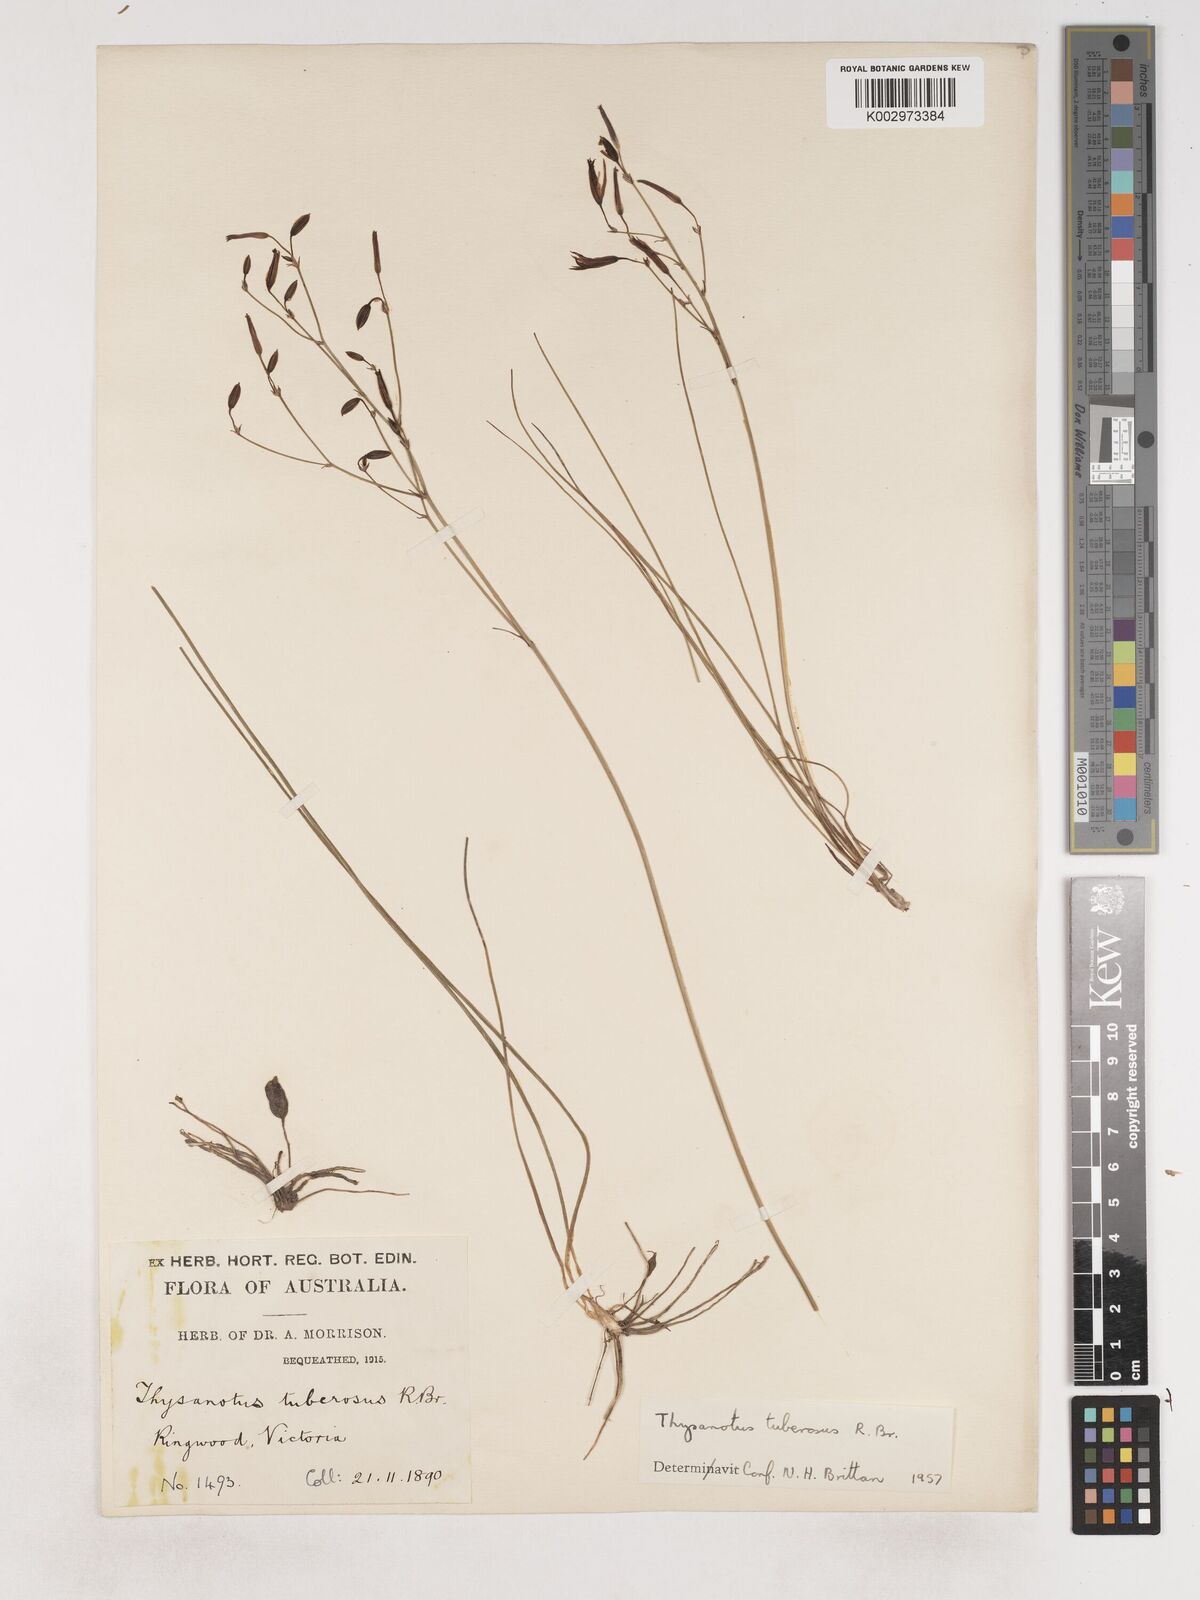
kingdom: Plantae
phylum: Tracheophyta
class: Liliopsida
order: Asparagales
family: Asparagaceae
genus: Thysanotus
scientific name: Thysanotus tuberosus
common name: Common fringed-lily
